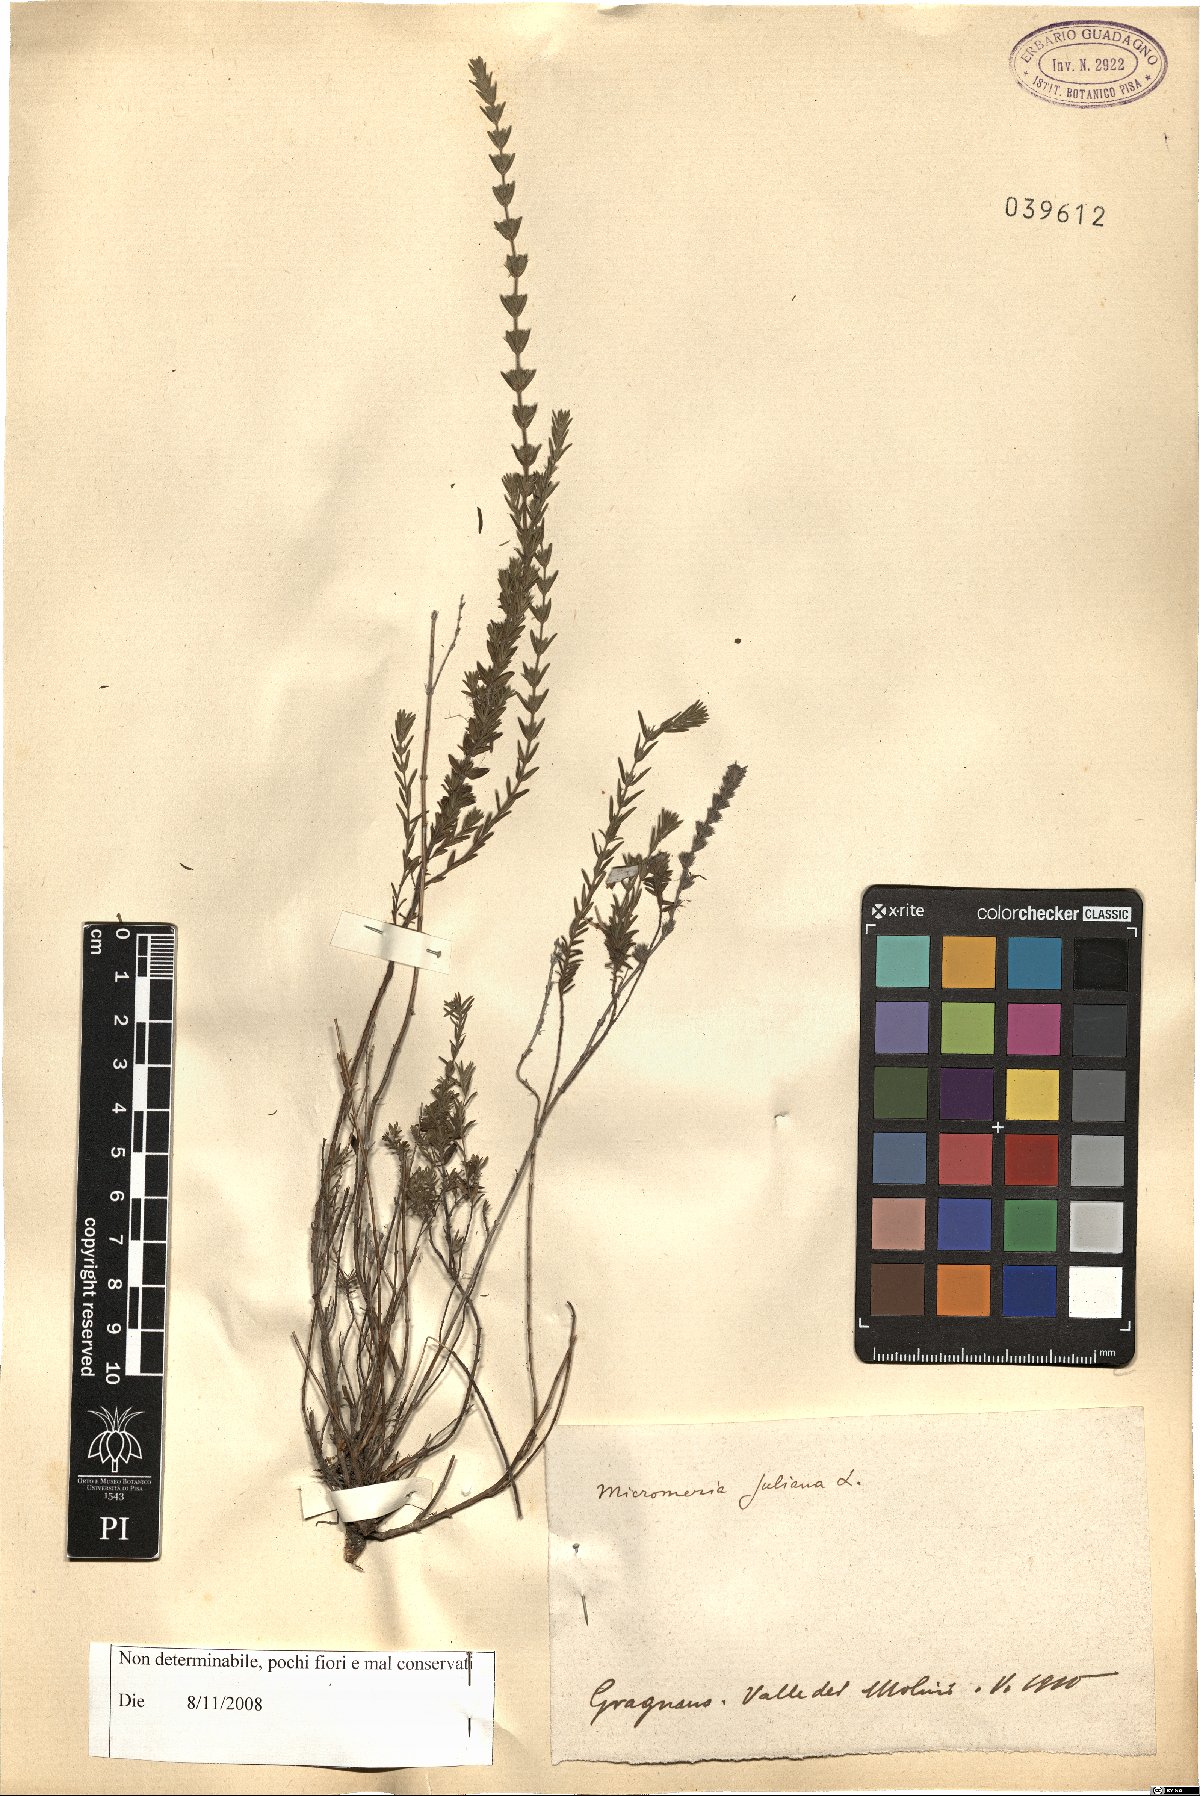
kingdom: Plantae
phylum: Tracheophyta
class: Magnoliopsida
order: Lamiales
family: Lamiaceae
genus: Micromeria
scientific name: Micromeria juliana
